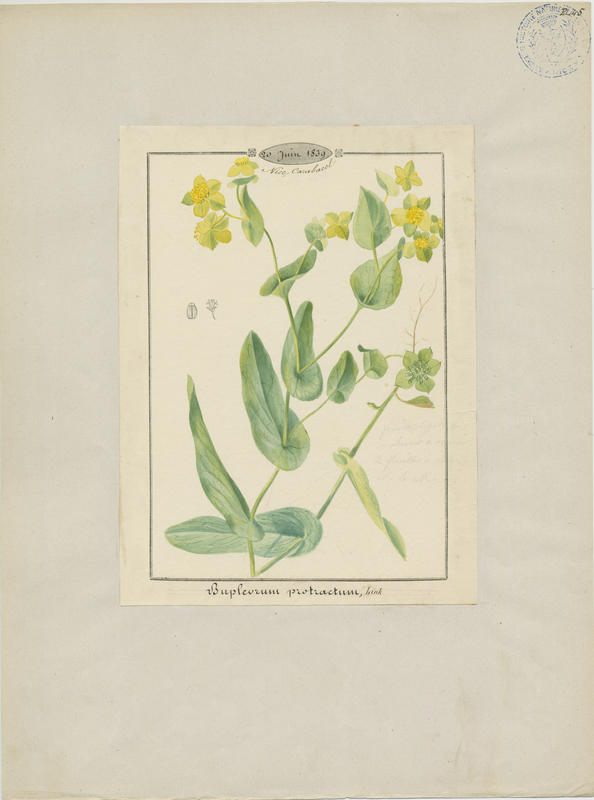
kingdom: Plantae
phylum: Tracheophyta
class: Magnoliopsida
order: Apiales
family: Apiaceae
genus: Bupleurum
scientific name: Bupleurum subovatum
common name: False thorow-wax
